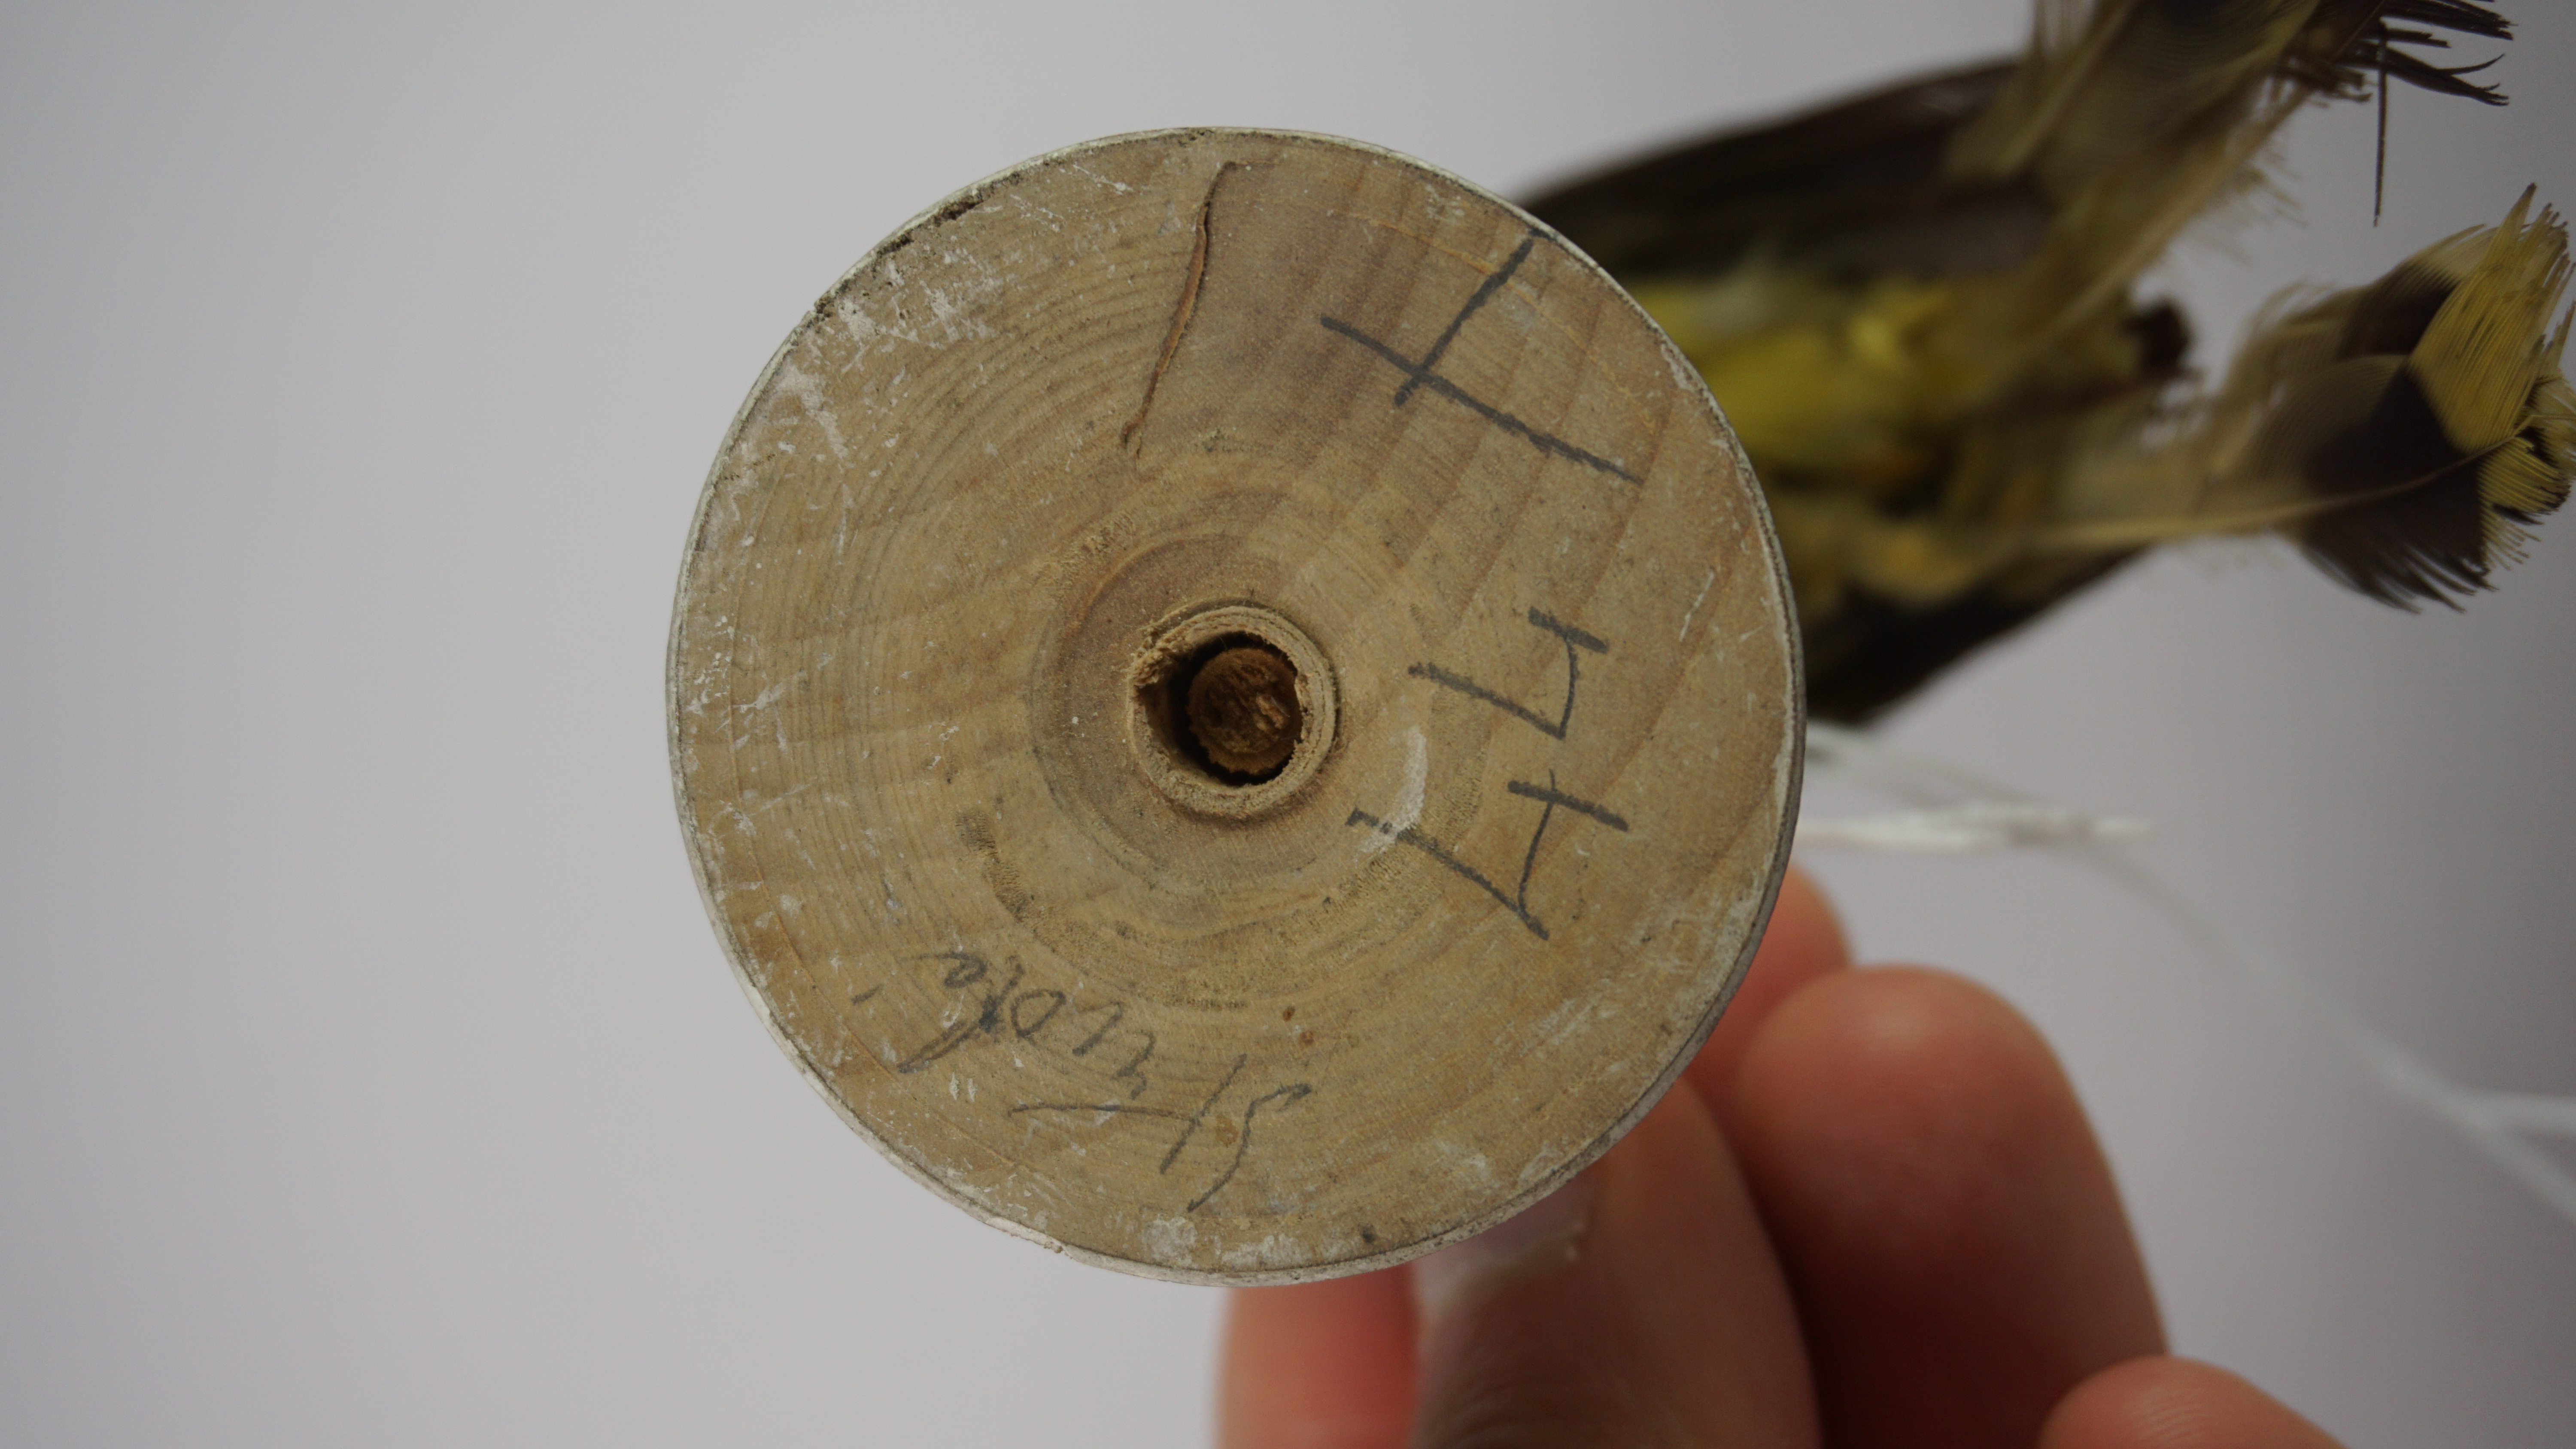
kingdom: Animalia
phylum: Chordata
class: Aves
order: Passeriformes
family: Pycnonotidae
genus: Pycnonotus
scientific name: Pycnonotus atriceps
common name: Black-headed bulbul
